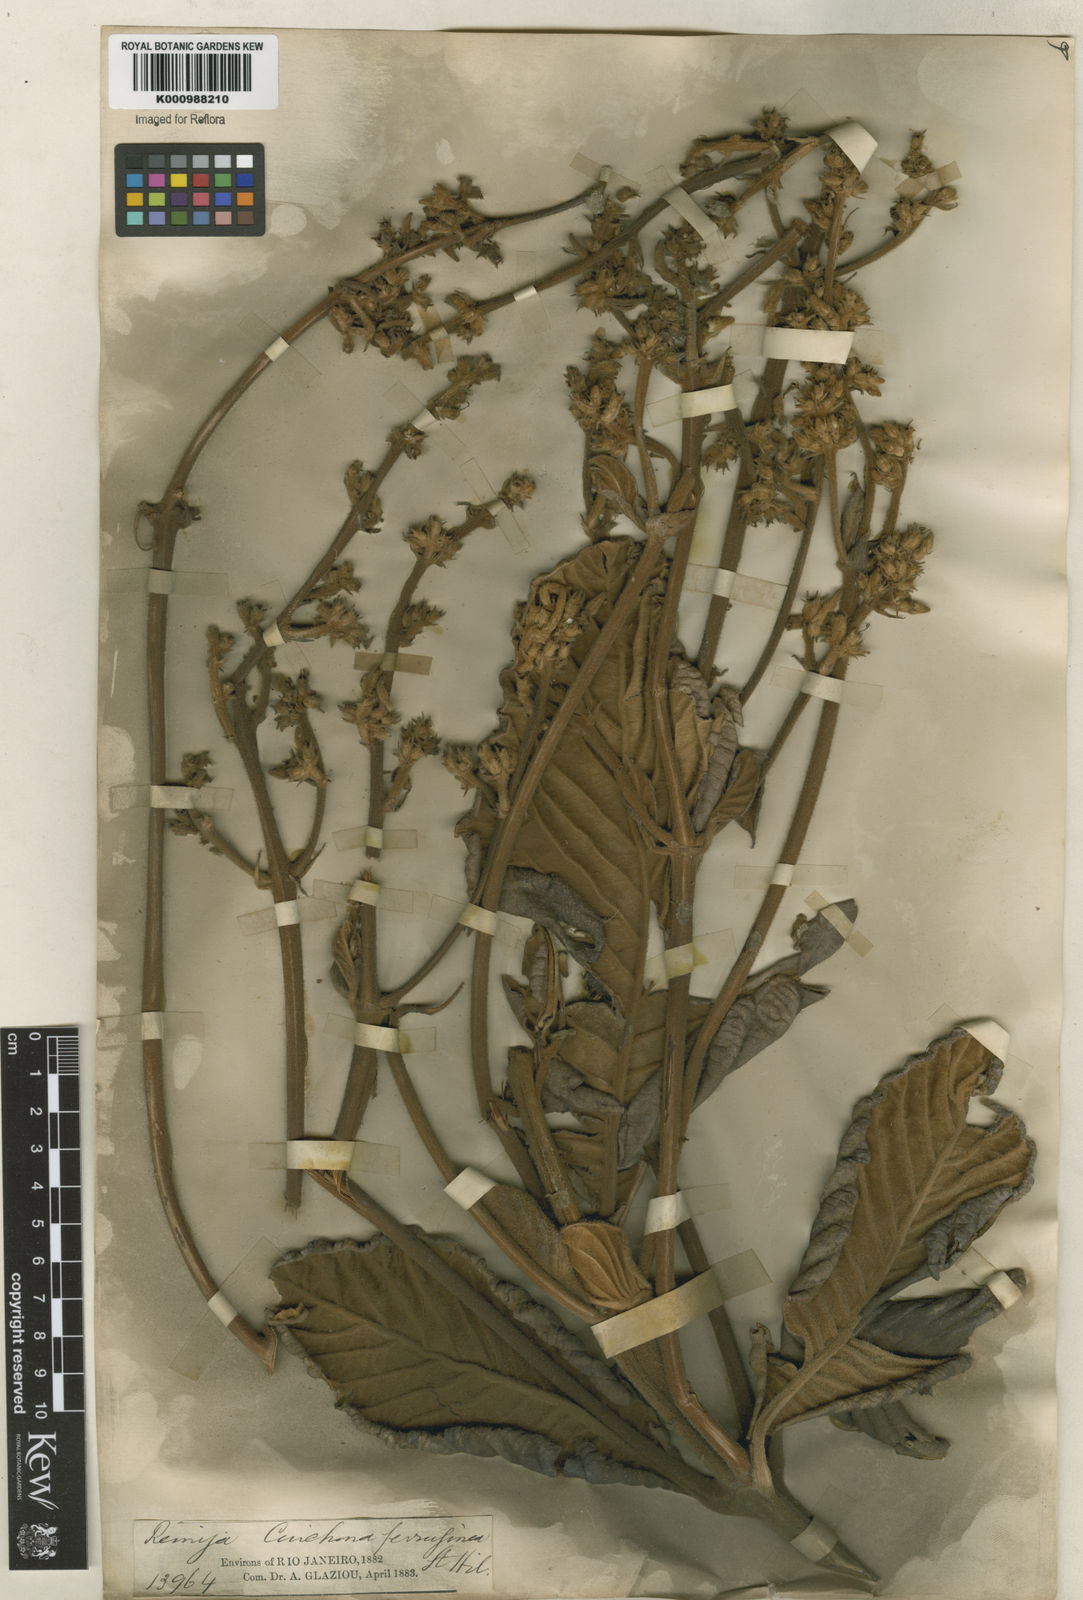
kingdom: Plantae
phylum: Tracheophyta
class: Magnoliopsida
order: Gentianales
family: Rubiaceae
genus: Remijia
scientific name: Remijia ferruginea
